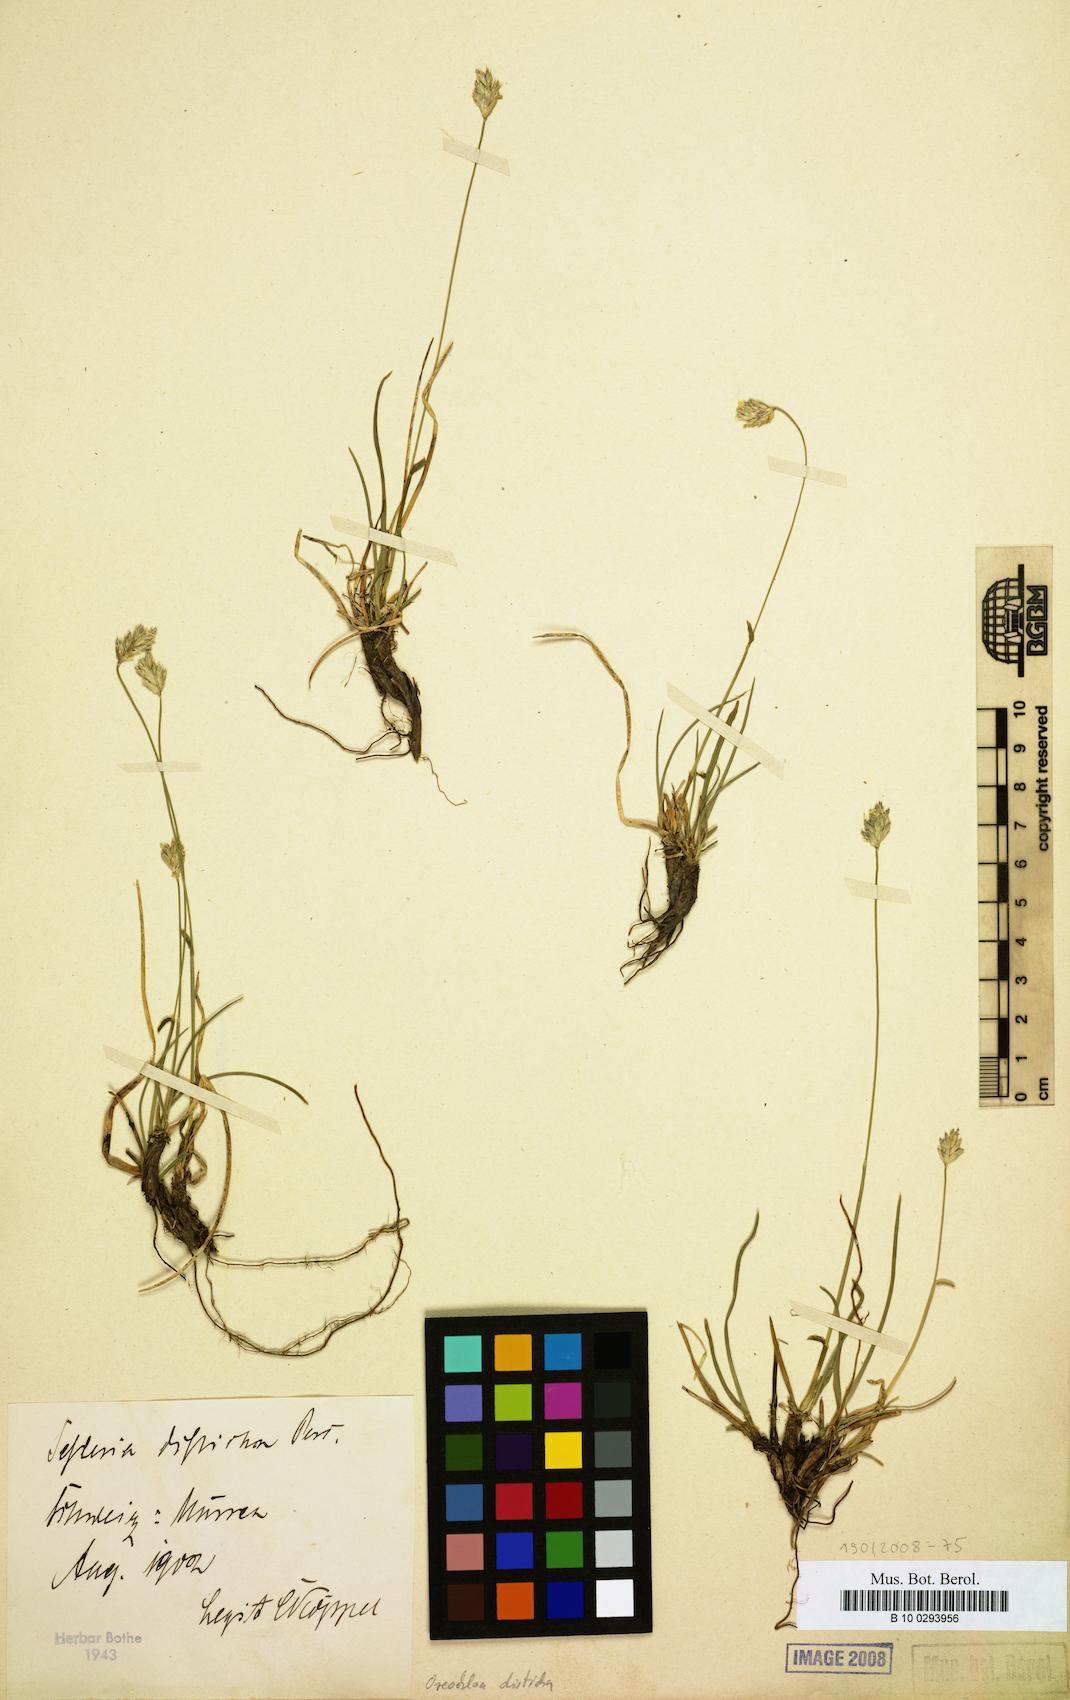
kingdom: Plantae
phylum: Tracheophyta
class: Liliopsida
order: Poales
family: Poaceae
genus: Oreochloa
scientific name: Oreochloa disticha
